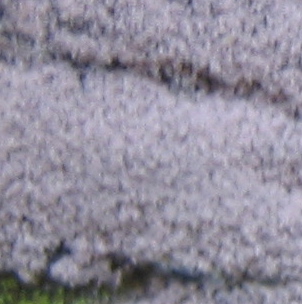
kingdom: Fungi
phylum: Ascomycota
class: Sordariomycetes
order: Xylariales
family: Hypoxylaceae
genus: Hypoxylon
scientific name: Hypoxylon macrocarpum
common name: skorpe-kulbær
